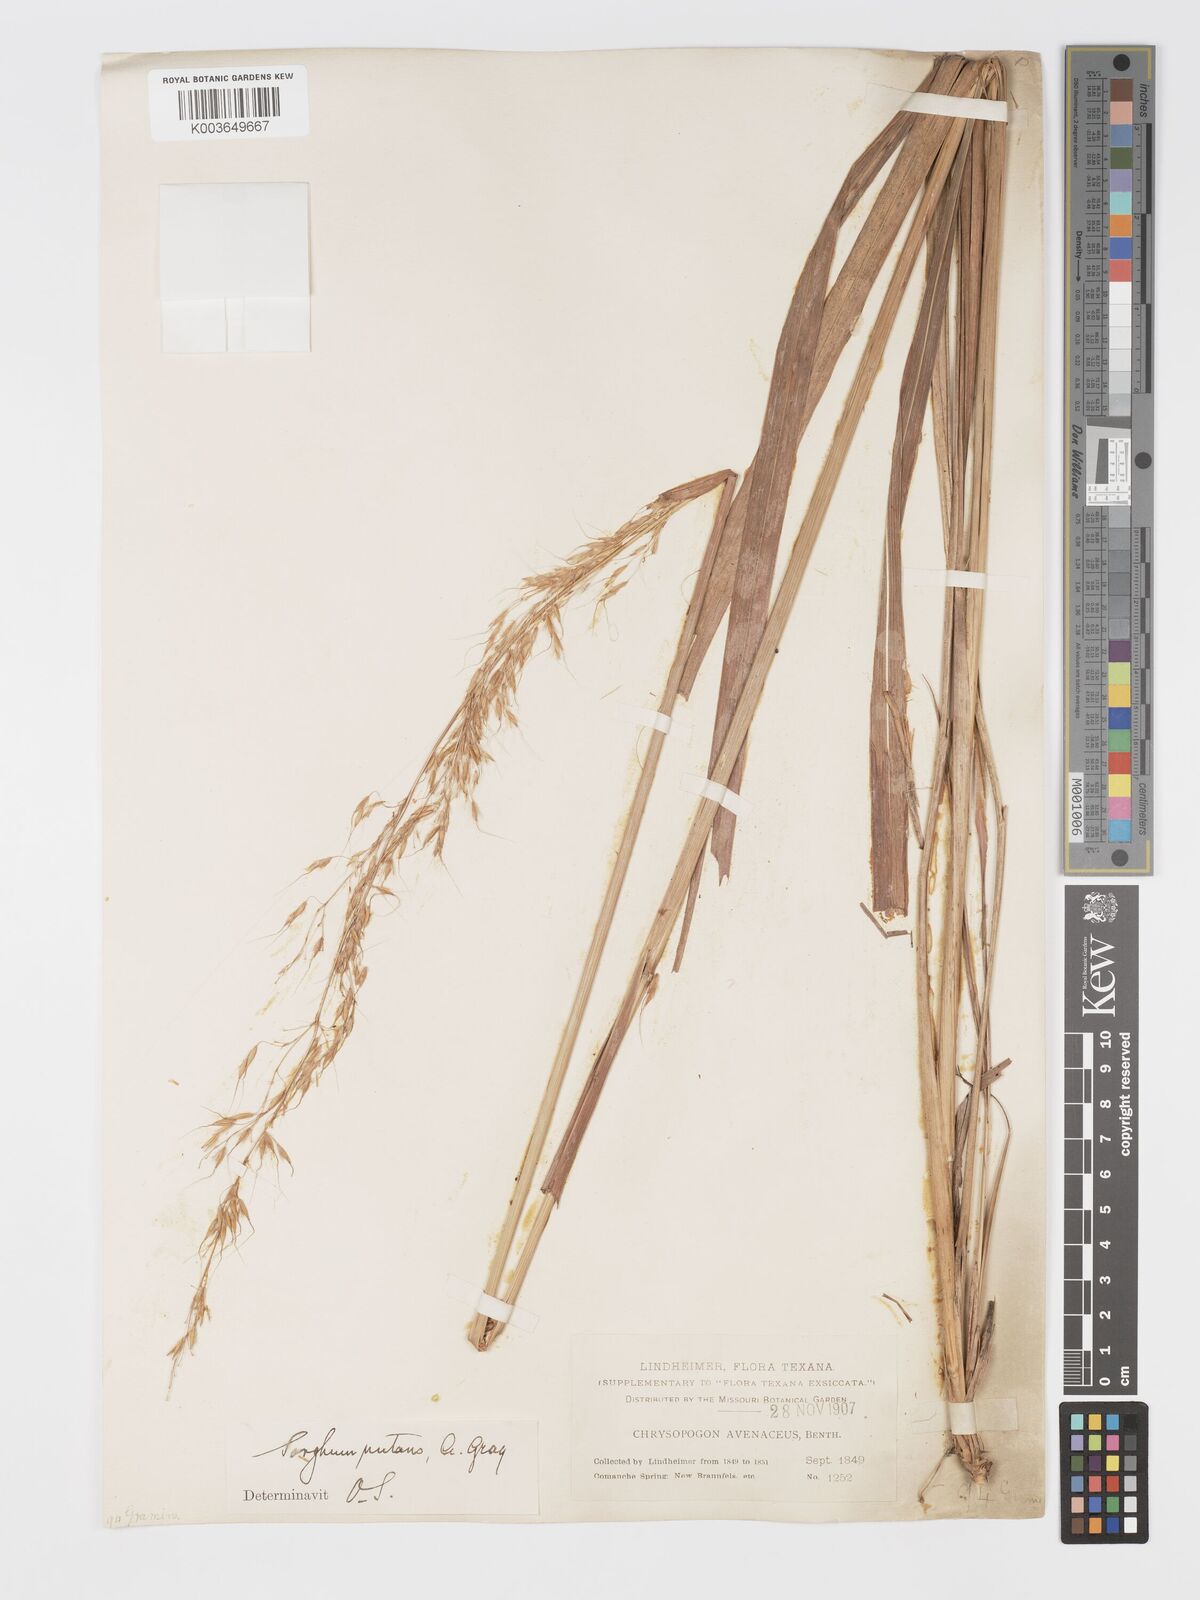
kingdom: Plantae
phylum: Tracheophyta
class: Liliopsida
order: Poales
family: Poaceae
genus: Sorghastrum
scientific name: Sorghastrum nutans
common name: Indian grass
